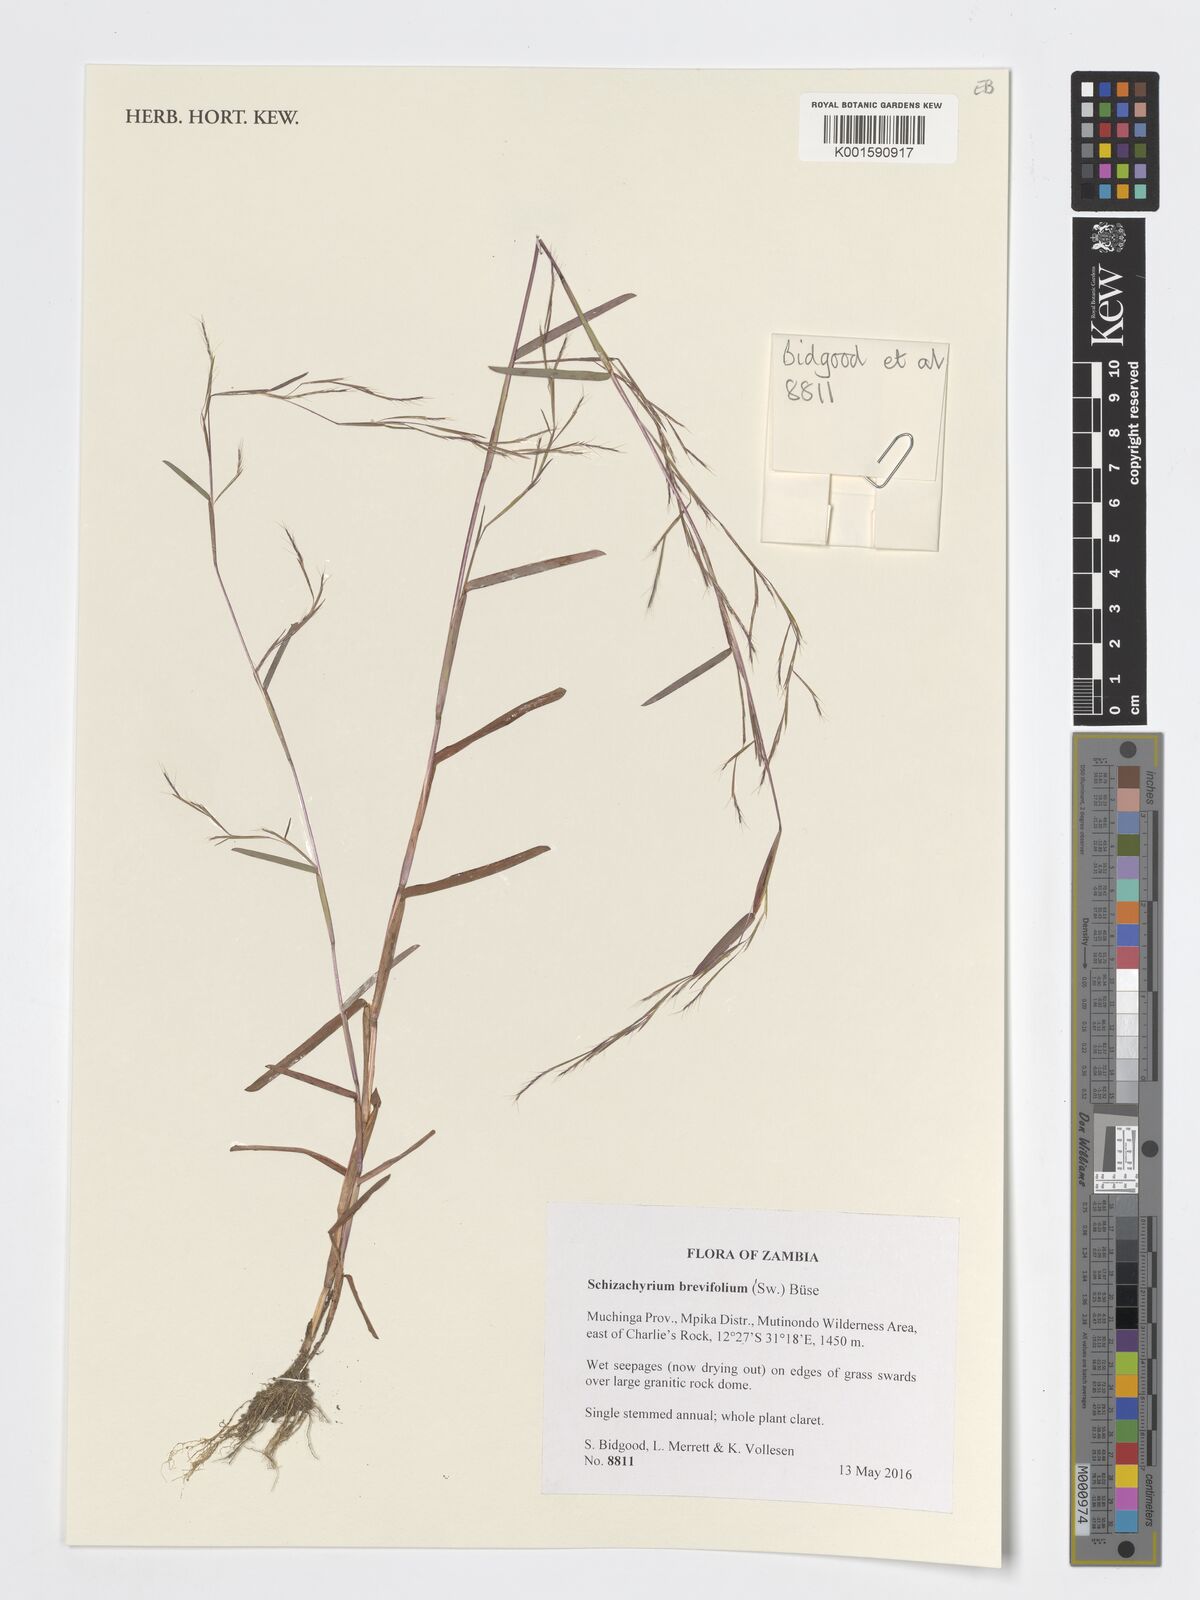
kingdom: Plantae
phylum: Tracheophyta
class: Liliopsida
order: Poales
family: Poaceae
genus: Schizachyrium
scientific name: Schizachyrium brevifolium
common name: Serillo dulce
